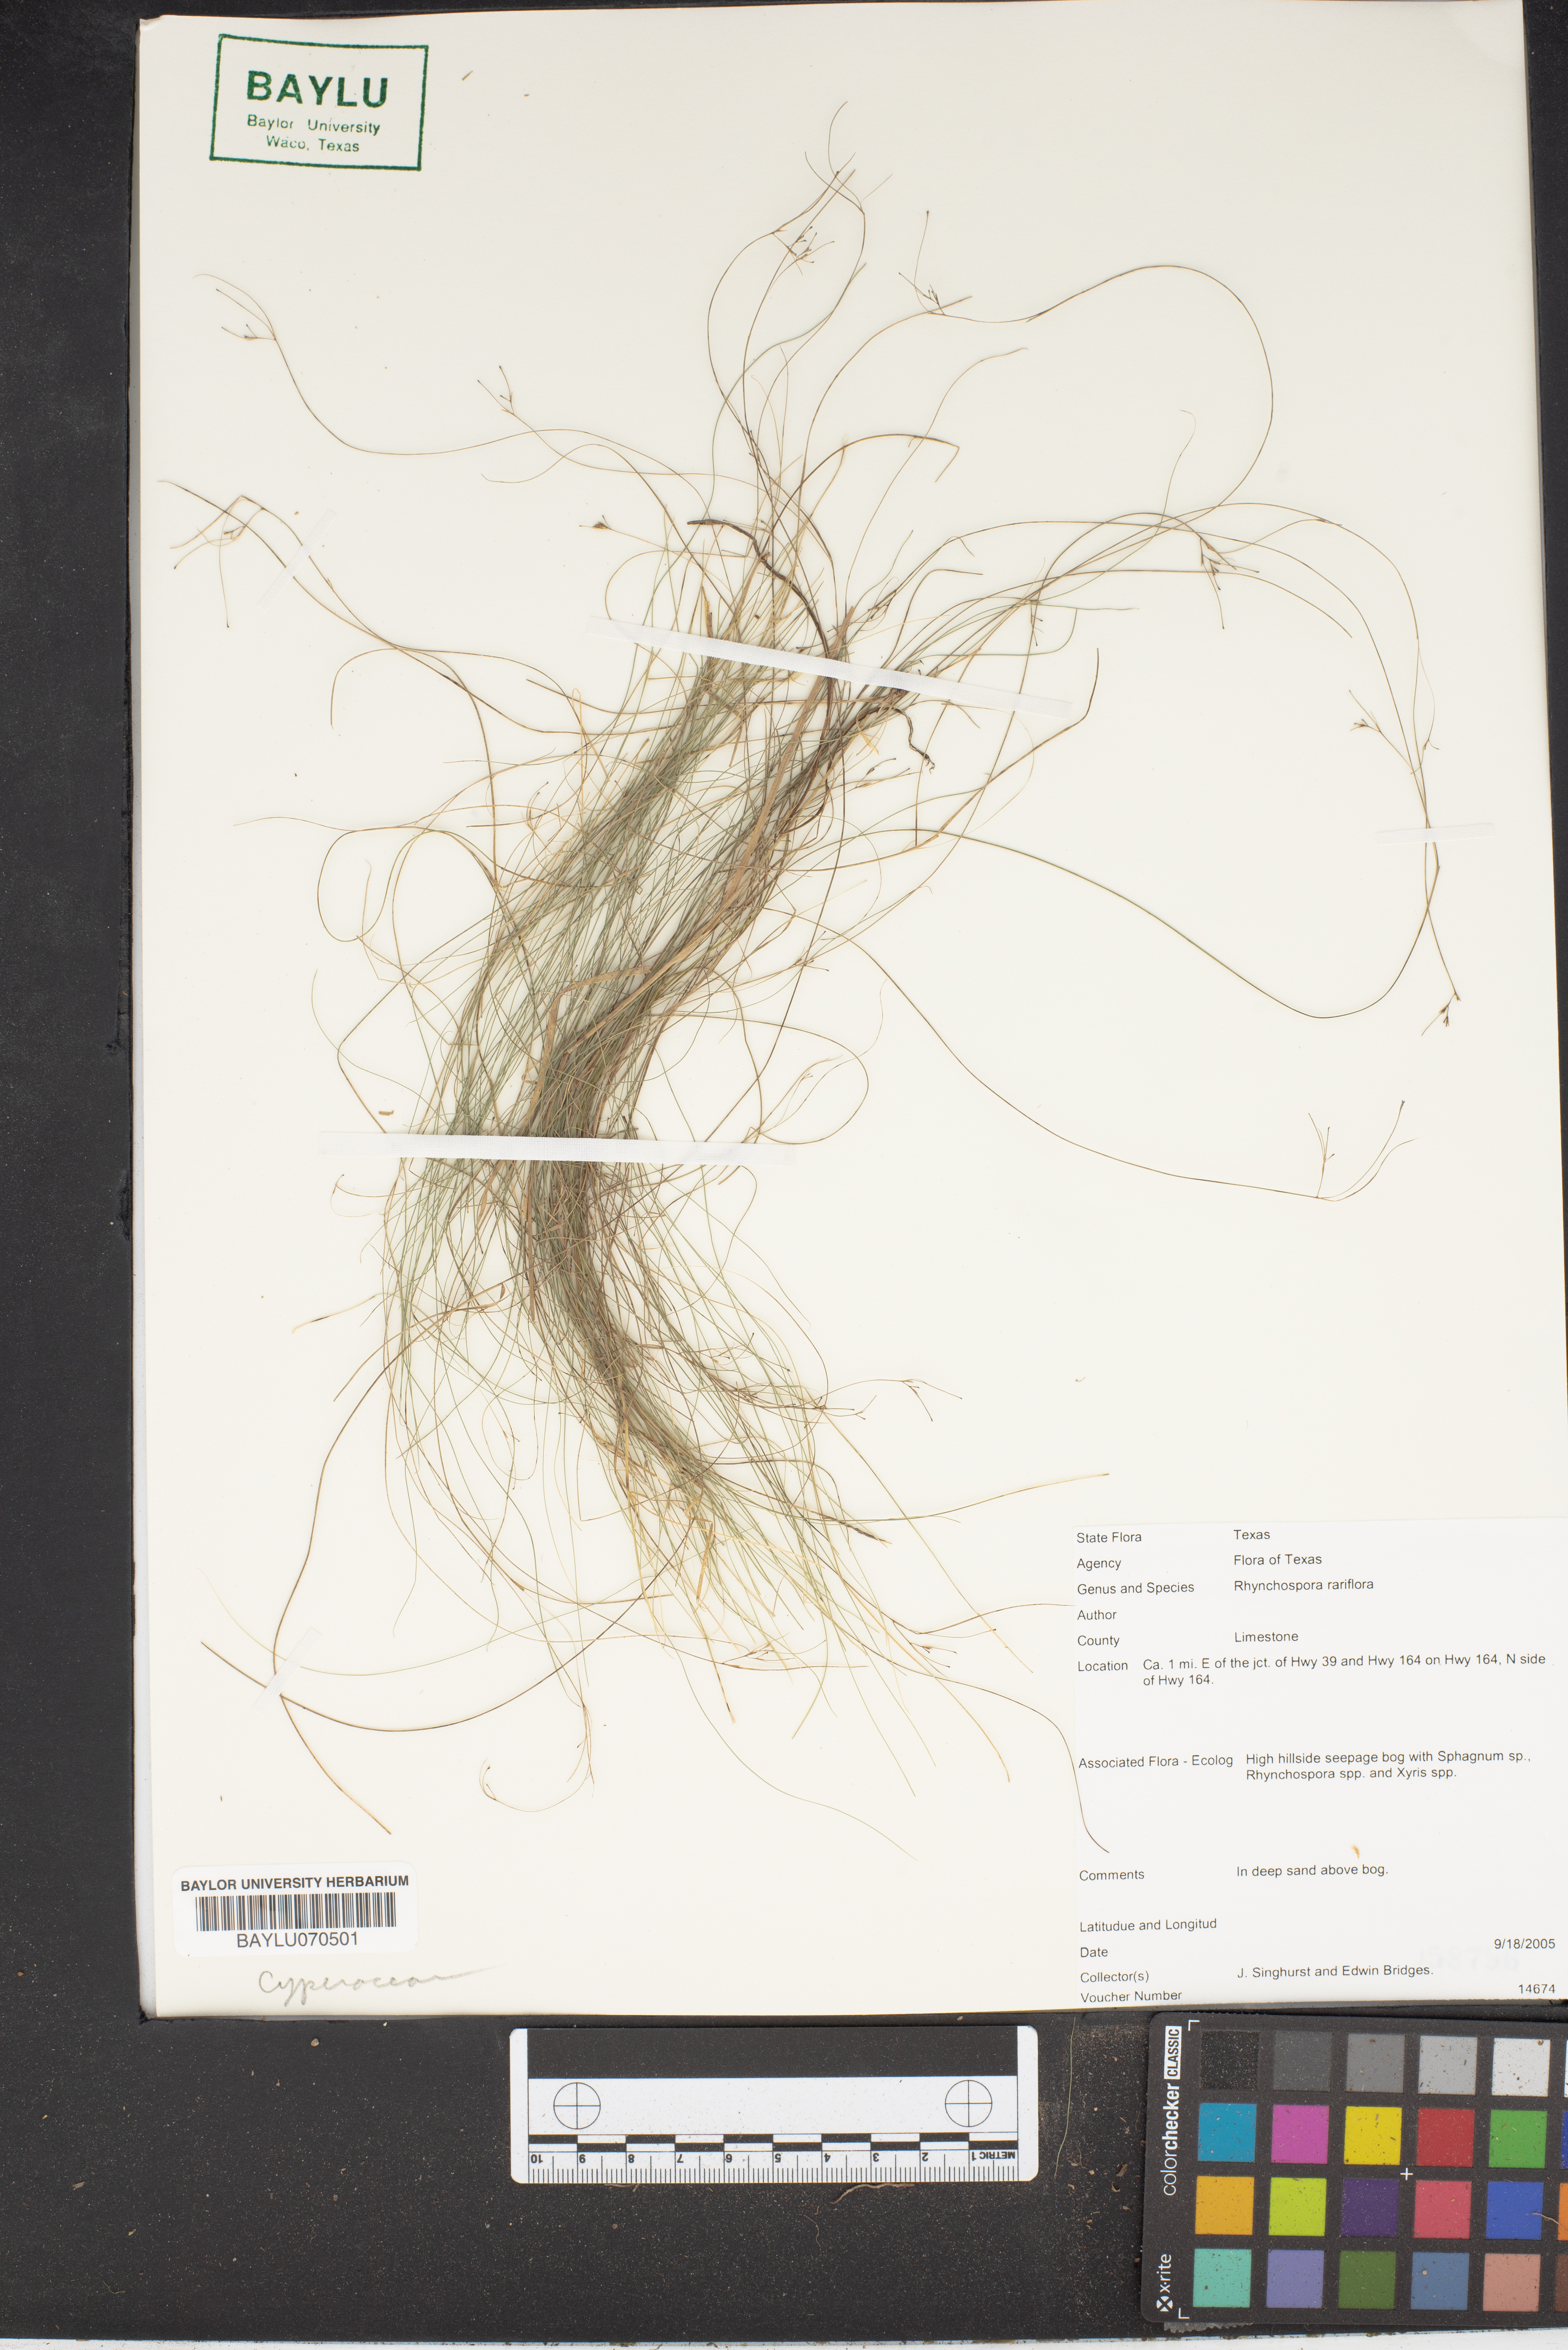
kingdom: Plantae
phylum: Tracheophyta
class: Liliopsida
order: Poales
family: Cyperaceae
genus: Rhynchospora
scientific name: Rhynchospora rariflora
